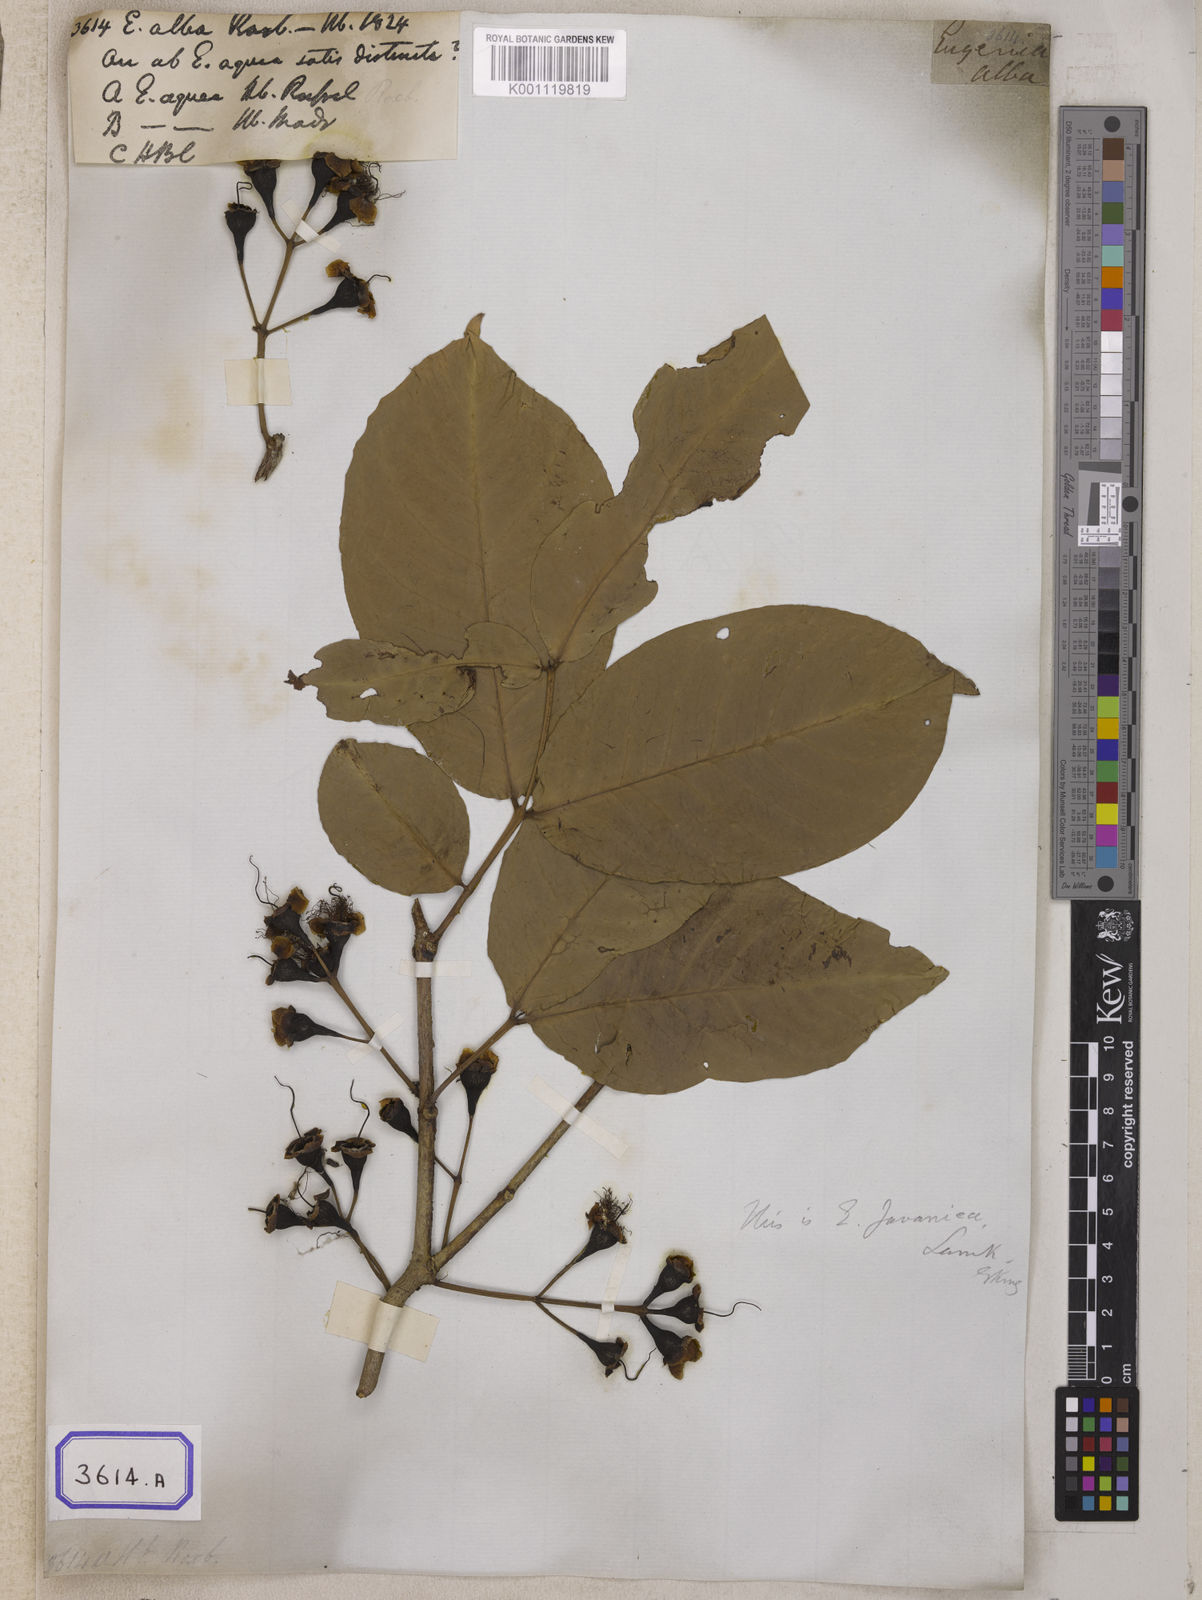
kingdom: Plantae
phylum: Tracheophyta
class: Magnoliopsida
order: Myrtales
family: Myrtaceae
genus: Syzygium
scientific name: Syzygium aqueum
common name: Water-apple
